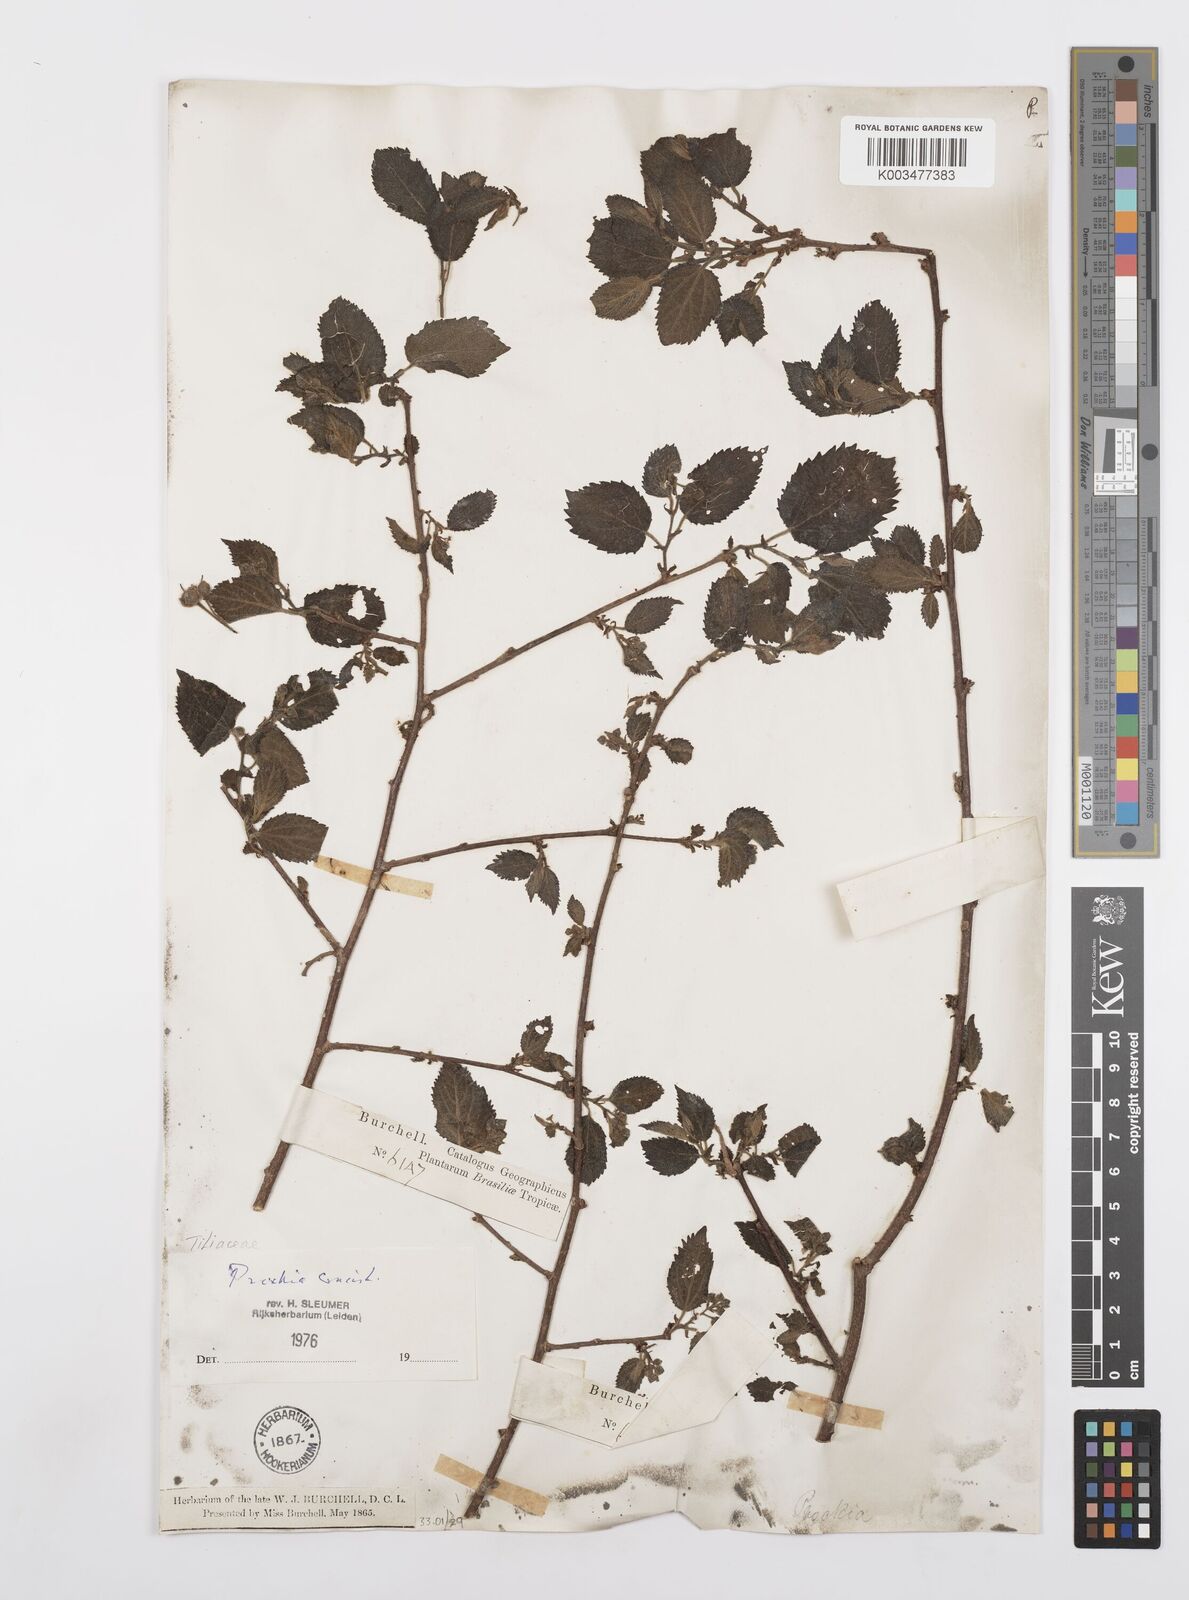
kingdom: Plantae
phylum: Tracheophyta
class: Magnoliopsida
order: Malpighiales
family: Salicaceae
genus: Prockia
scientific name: Prockia crucis
